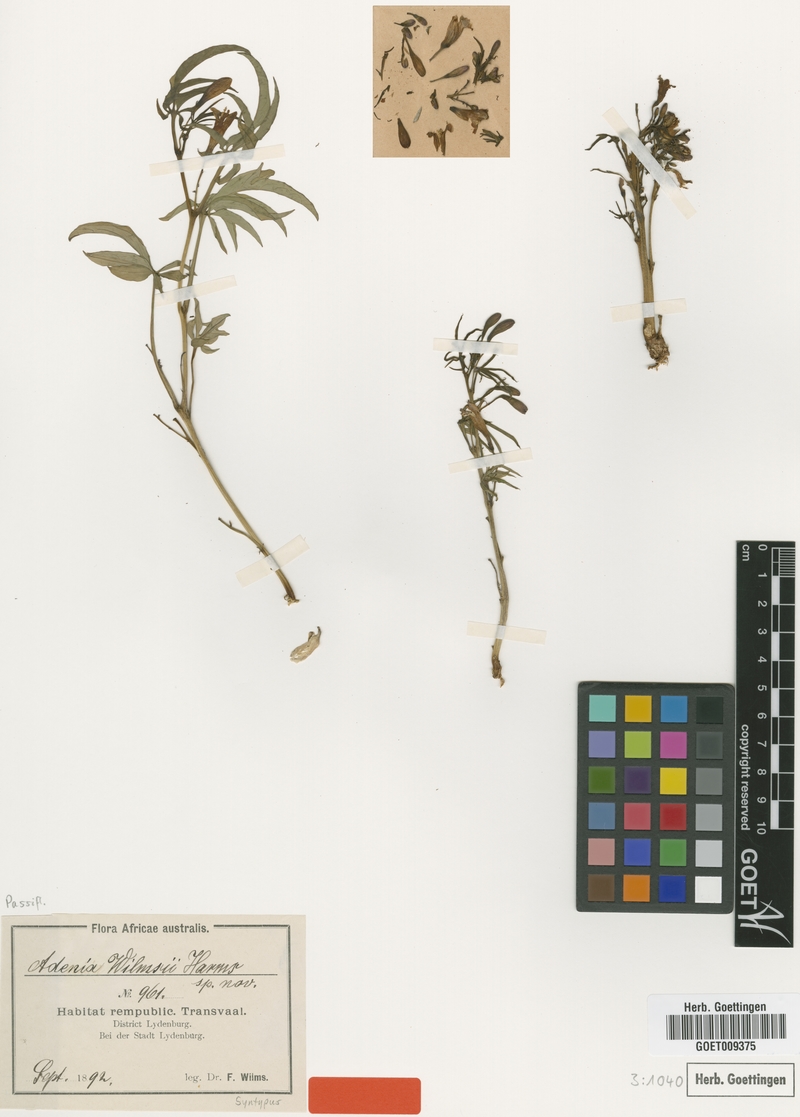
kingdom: Plantae
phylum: Tracheophyta
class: Magnoliopsida
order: Malpighiales
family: Passifloraceae
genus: Adenia
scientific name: Adenia wilmsii
